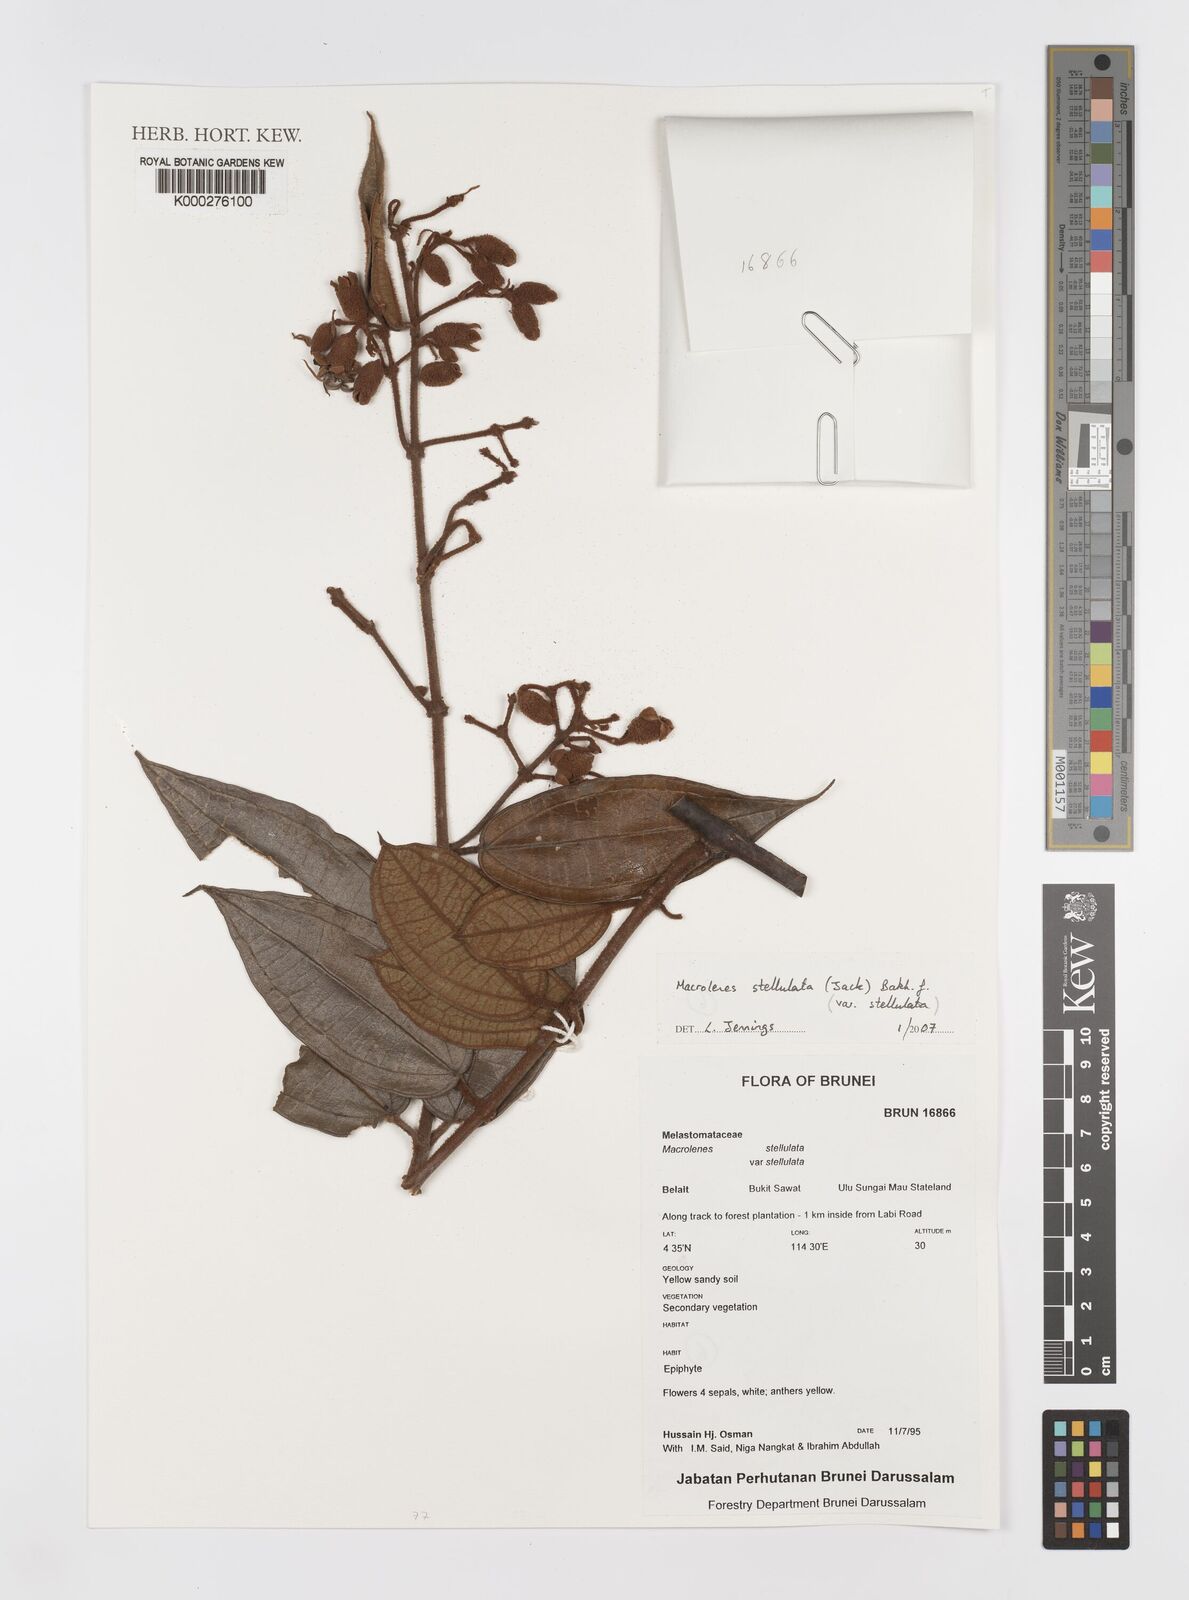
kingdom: Plantae
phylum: Tracheophyta
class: Magnoliopsida
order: Myrtales
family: Melastomataceae
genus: Macrolenes
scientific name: Macrolenes stellulata
